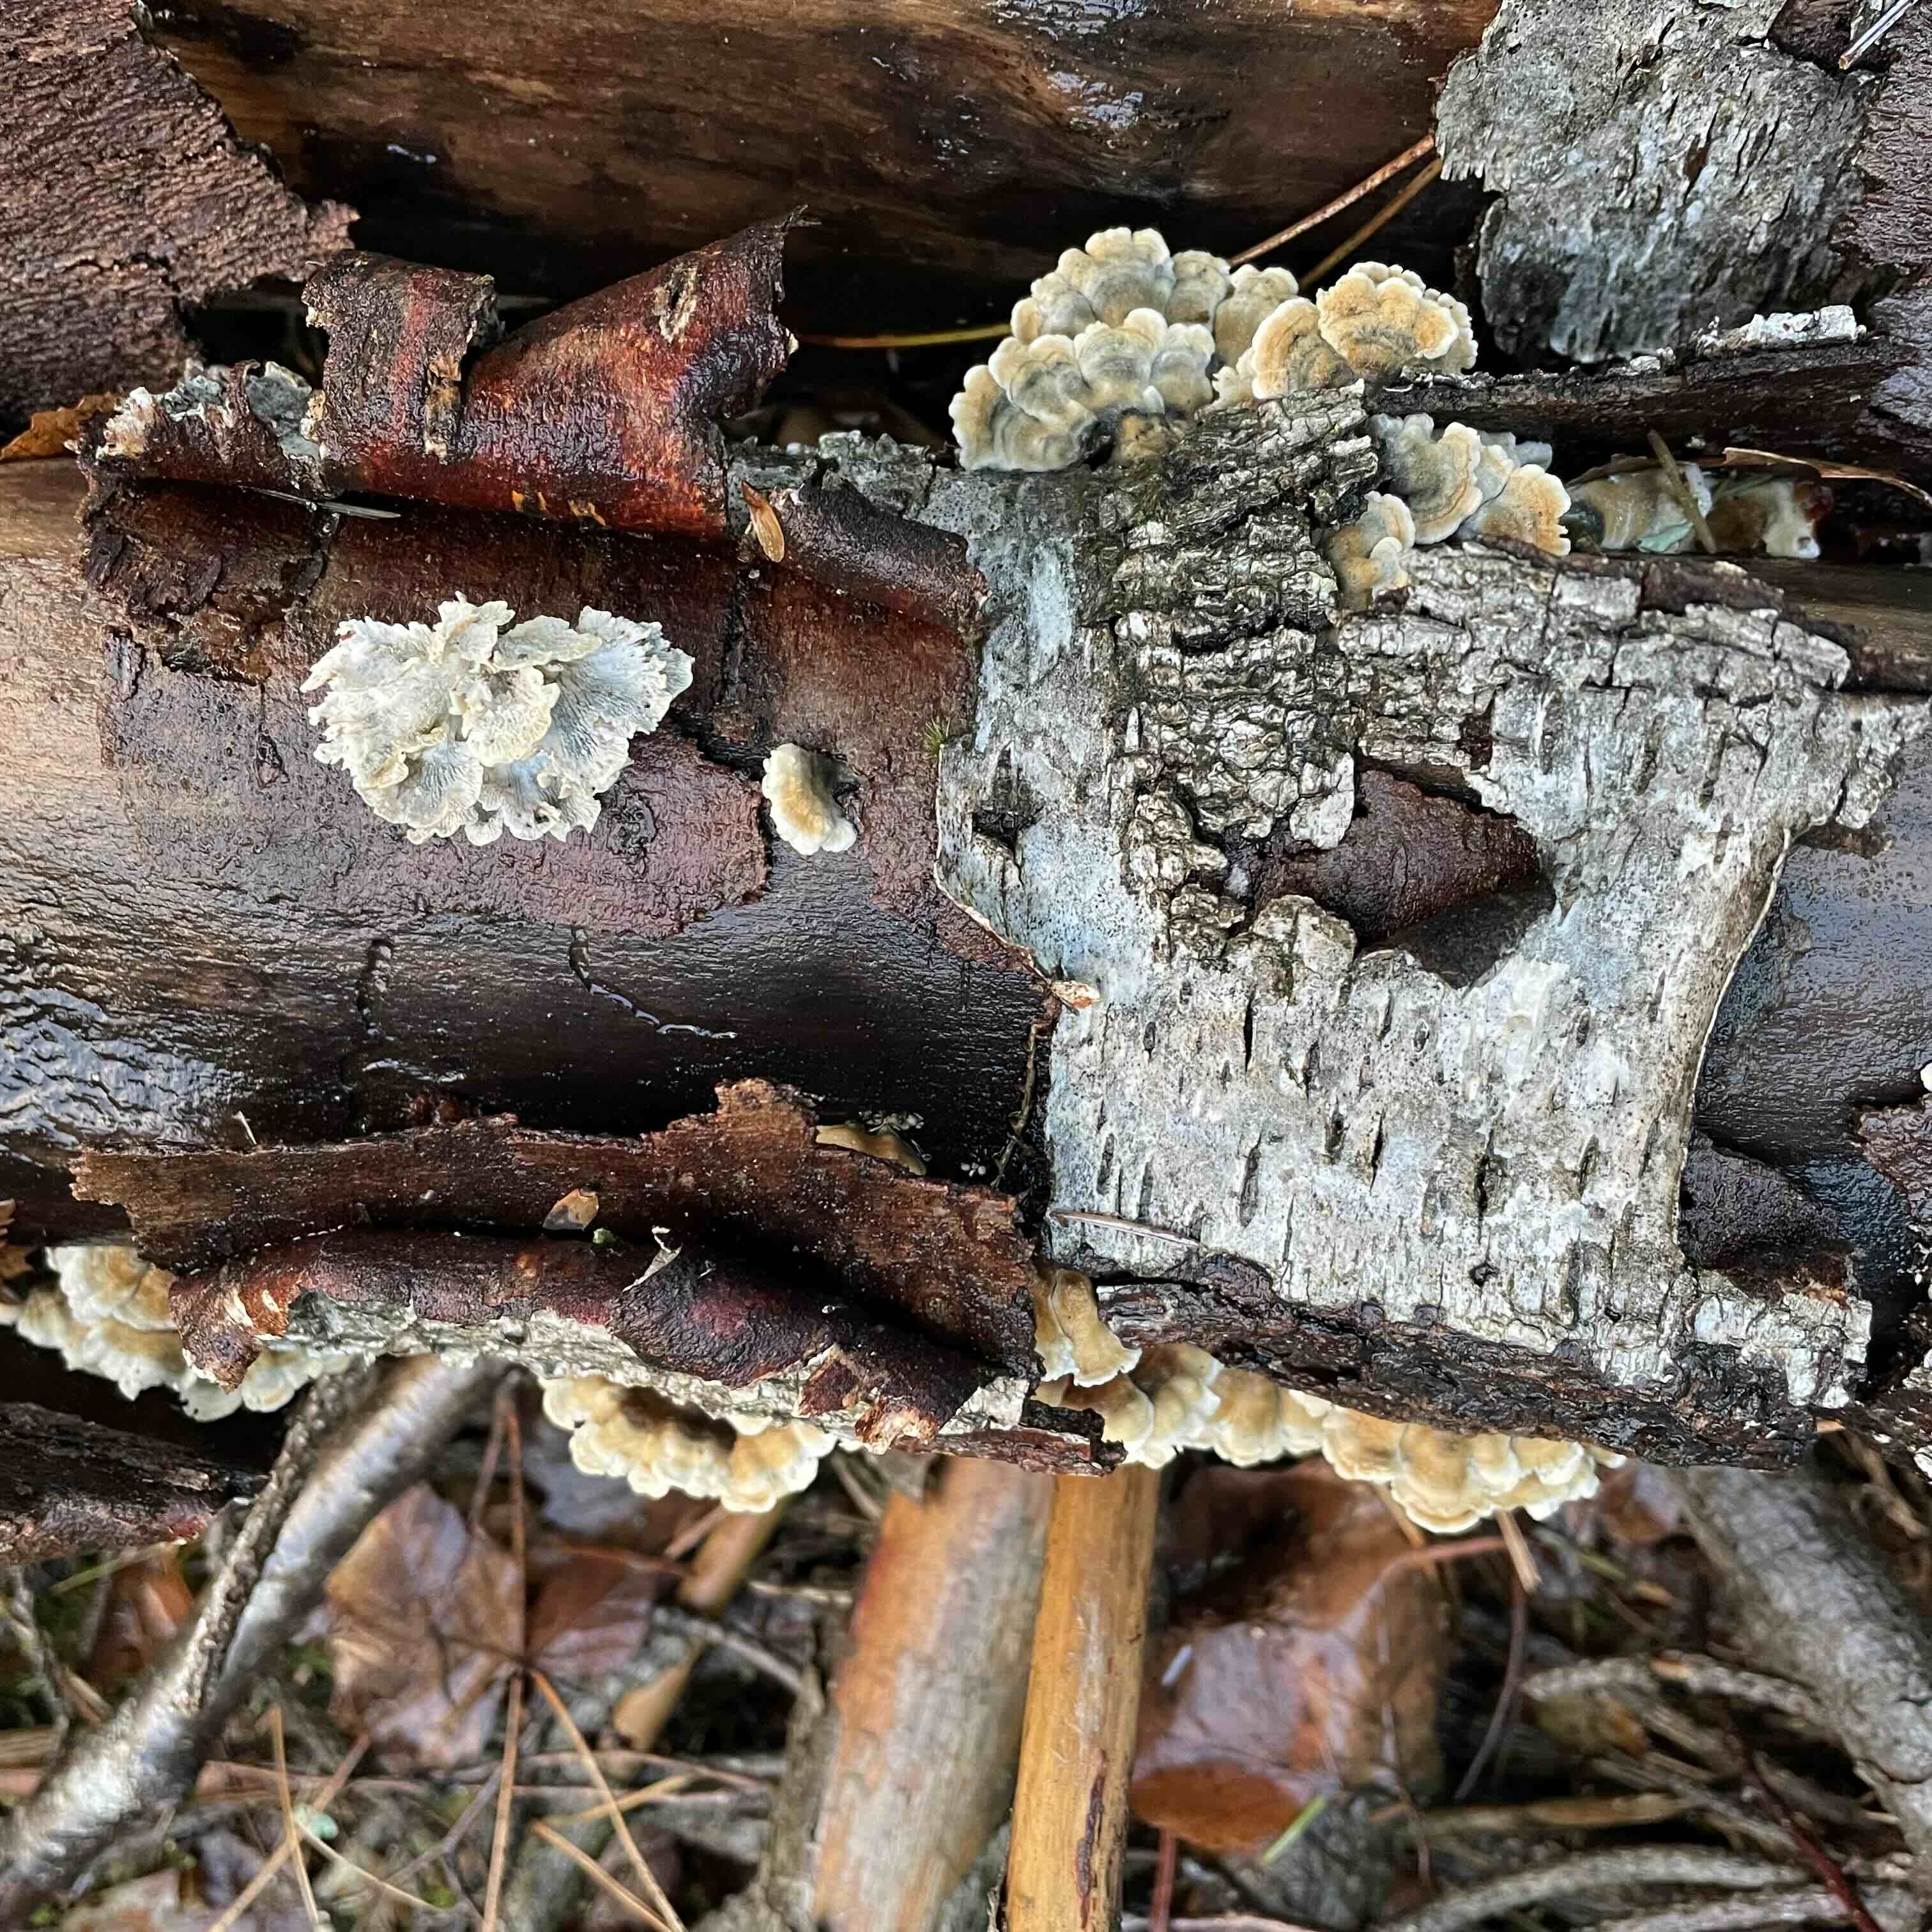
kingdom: Fungi
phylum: Basidiomycota
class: Agaricomycetes
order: Amylocorticiales
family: Amylocorticiaceae
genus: Plicaturopsis
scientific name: Plicaturopsis crispa
